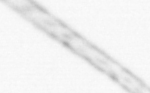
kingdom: Animalia
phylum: Arthropoda
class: Copepoda
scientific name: Copepoda
